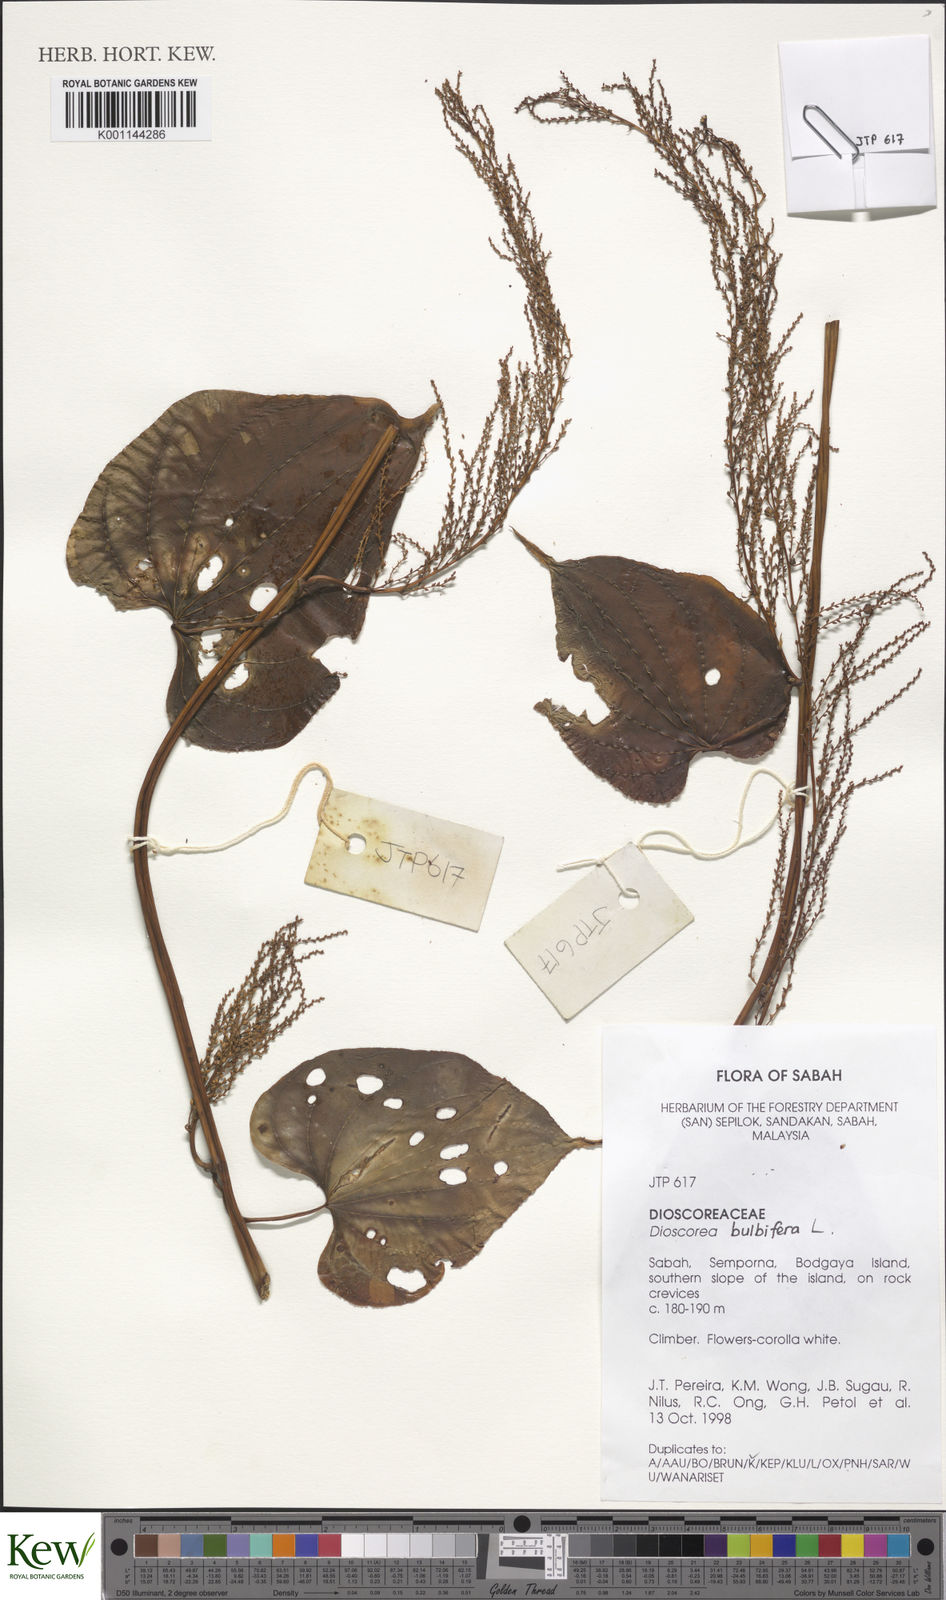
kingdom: Plantae
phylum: Tracheophyta
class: Liliopsida
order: Dioscoreales
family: Dioscoreaceae
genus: Dioscorea
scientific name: Dioscorea bulbifera
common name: Air yam
